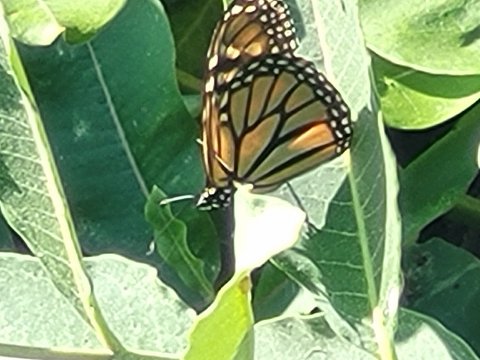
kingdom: Animalia
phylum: Arthropoda
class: Insecta
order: Lepidoptera
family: Nymphalidae
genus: Danaus
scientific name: Danaus plexippus
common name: Monarch
